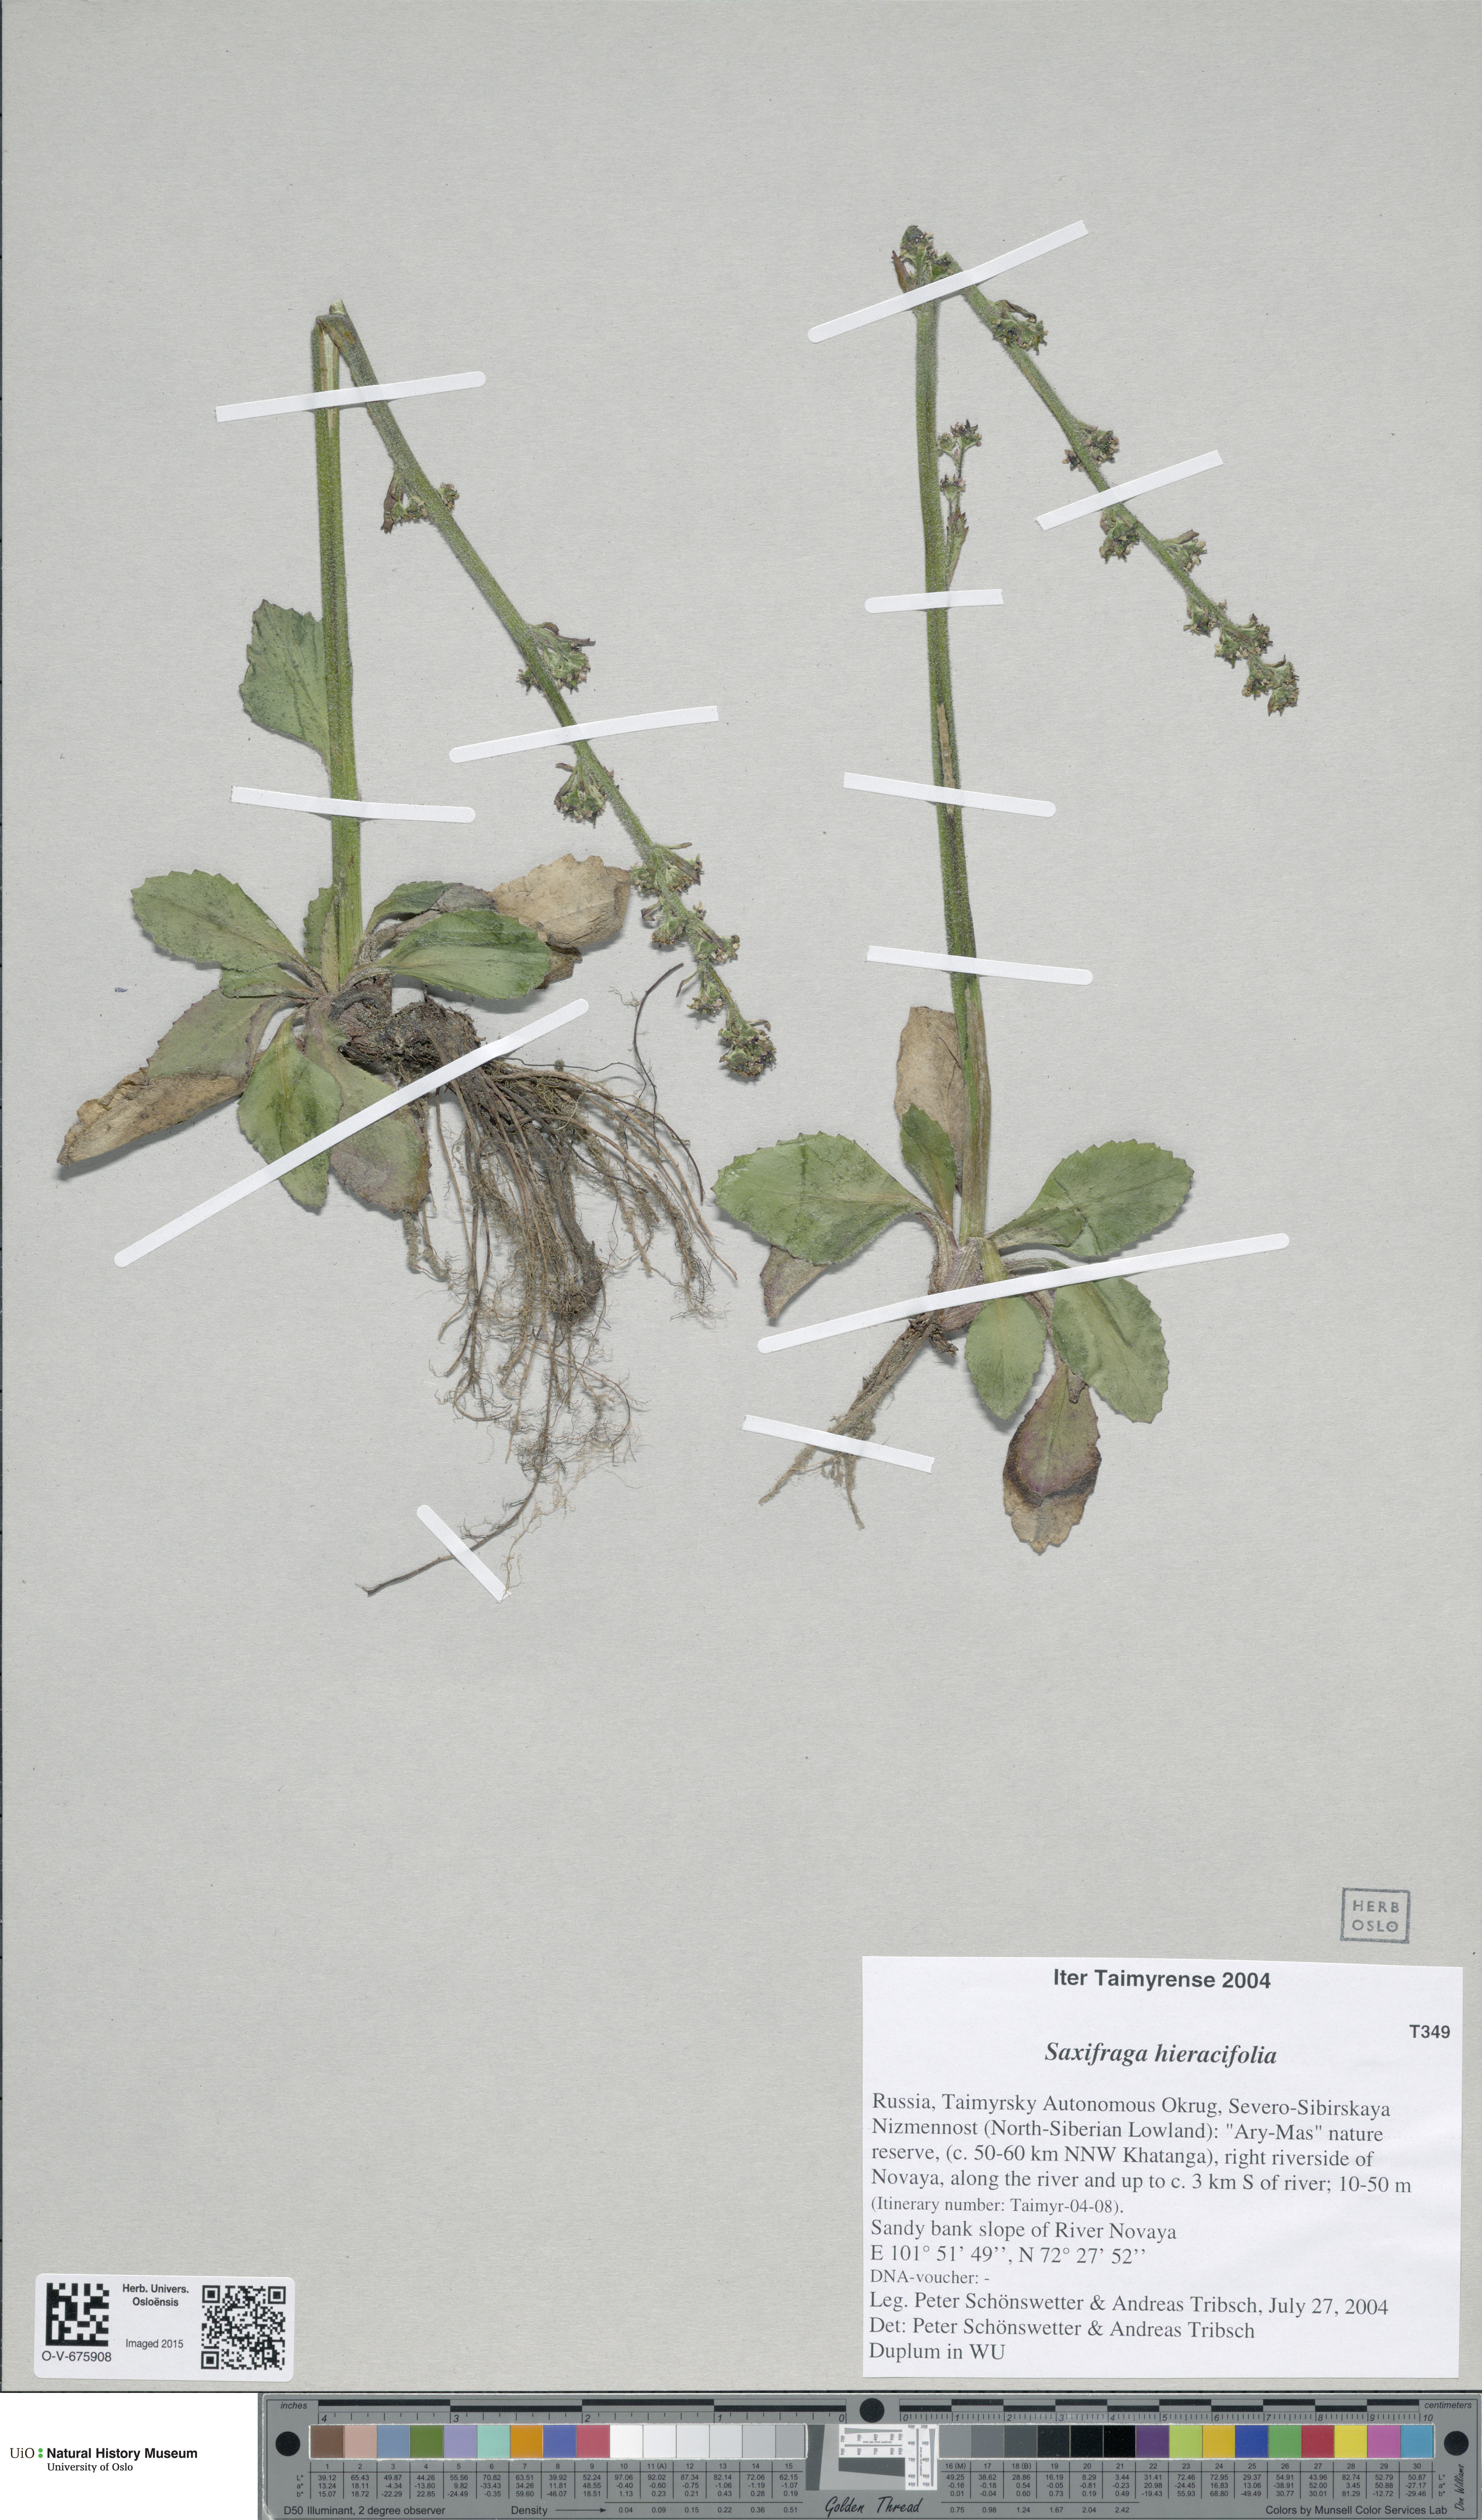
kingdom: Plantae
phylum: Tracheophyta
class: Magnoliopsida
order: Saxifragales
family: Saxifragaceae
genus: Micranthes
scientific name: Micranthes hieraciifolia
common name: Hawkweed-leaved saxifrage
